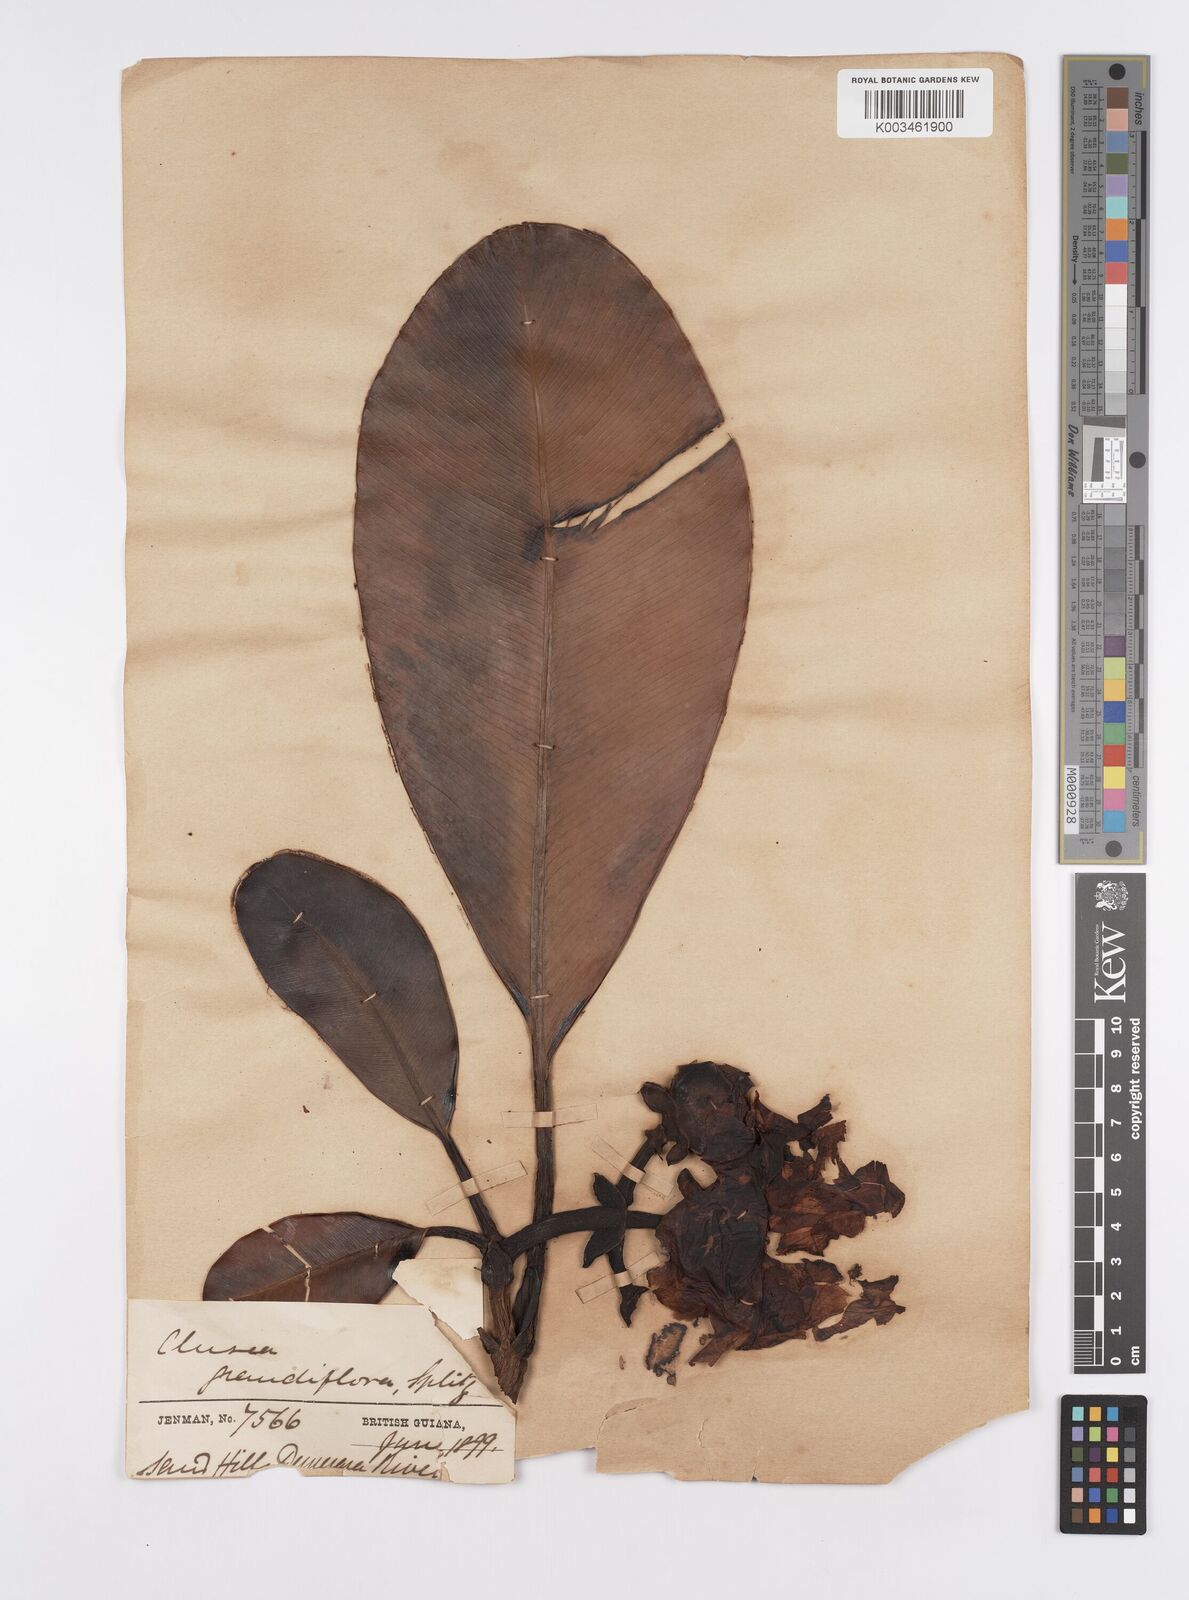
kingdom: Plantae
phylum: Tracheophyta
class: Magnoliopsida
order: Malpighiales
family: Clusiaceae
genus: Clusia
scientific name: Clusia grandiflora
